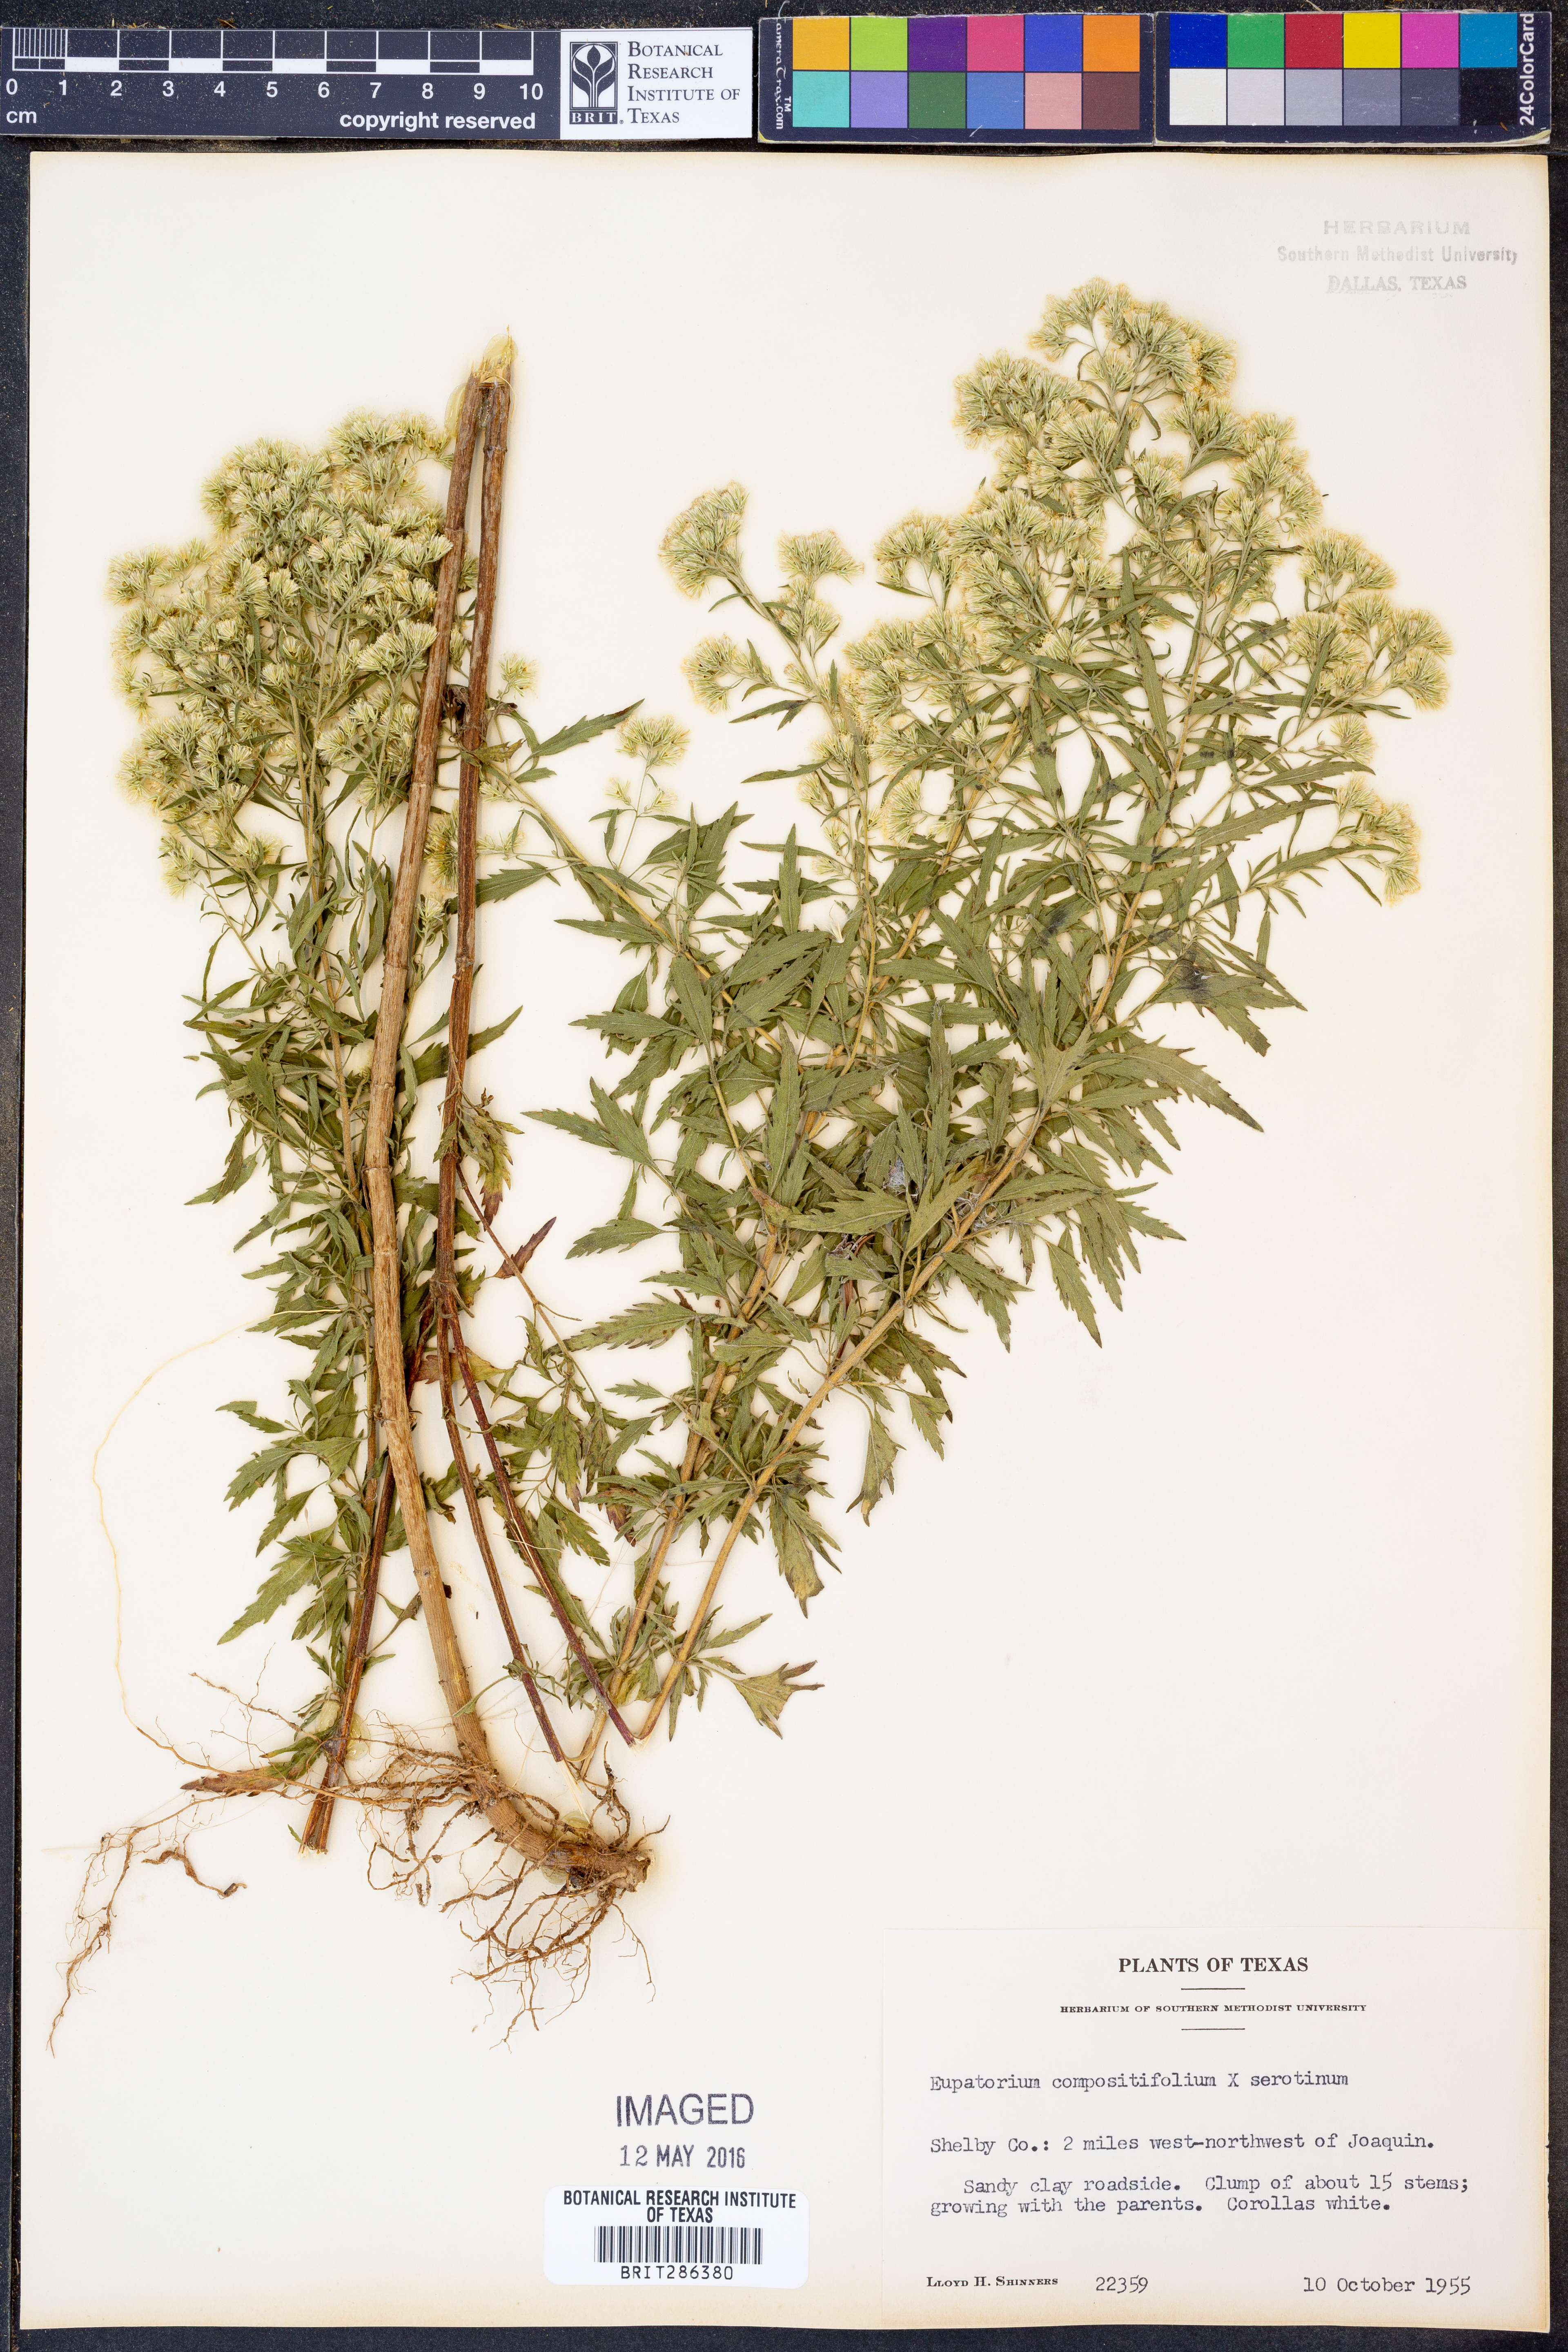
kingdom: Plantae
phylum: Tracheophyta
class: Magnoliopsida
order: Asterales
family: Asteraceae
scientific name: Asteraceae
